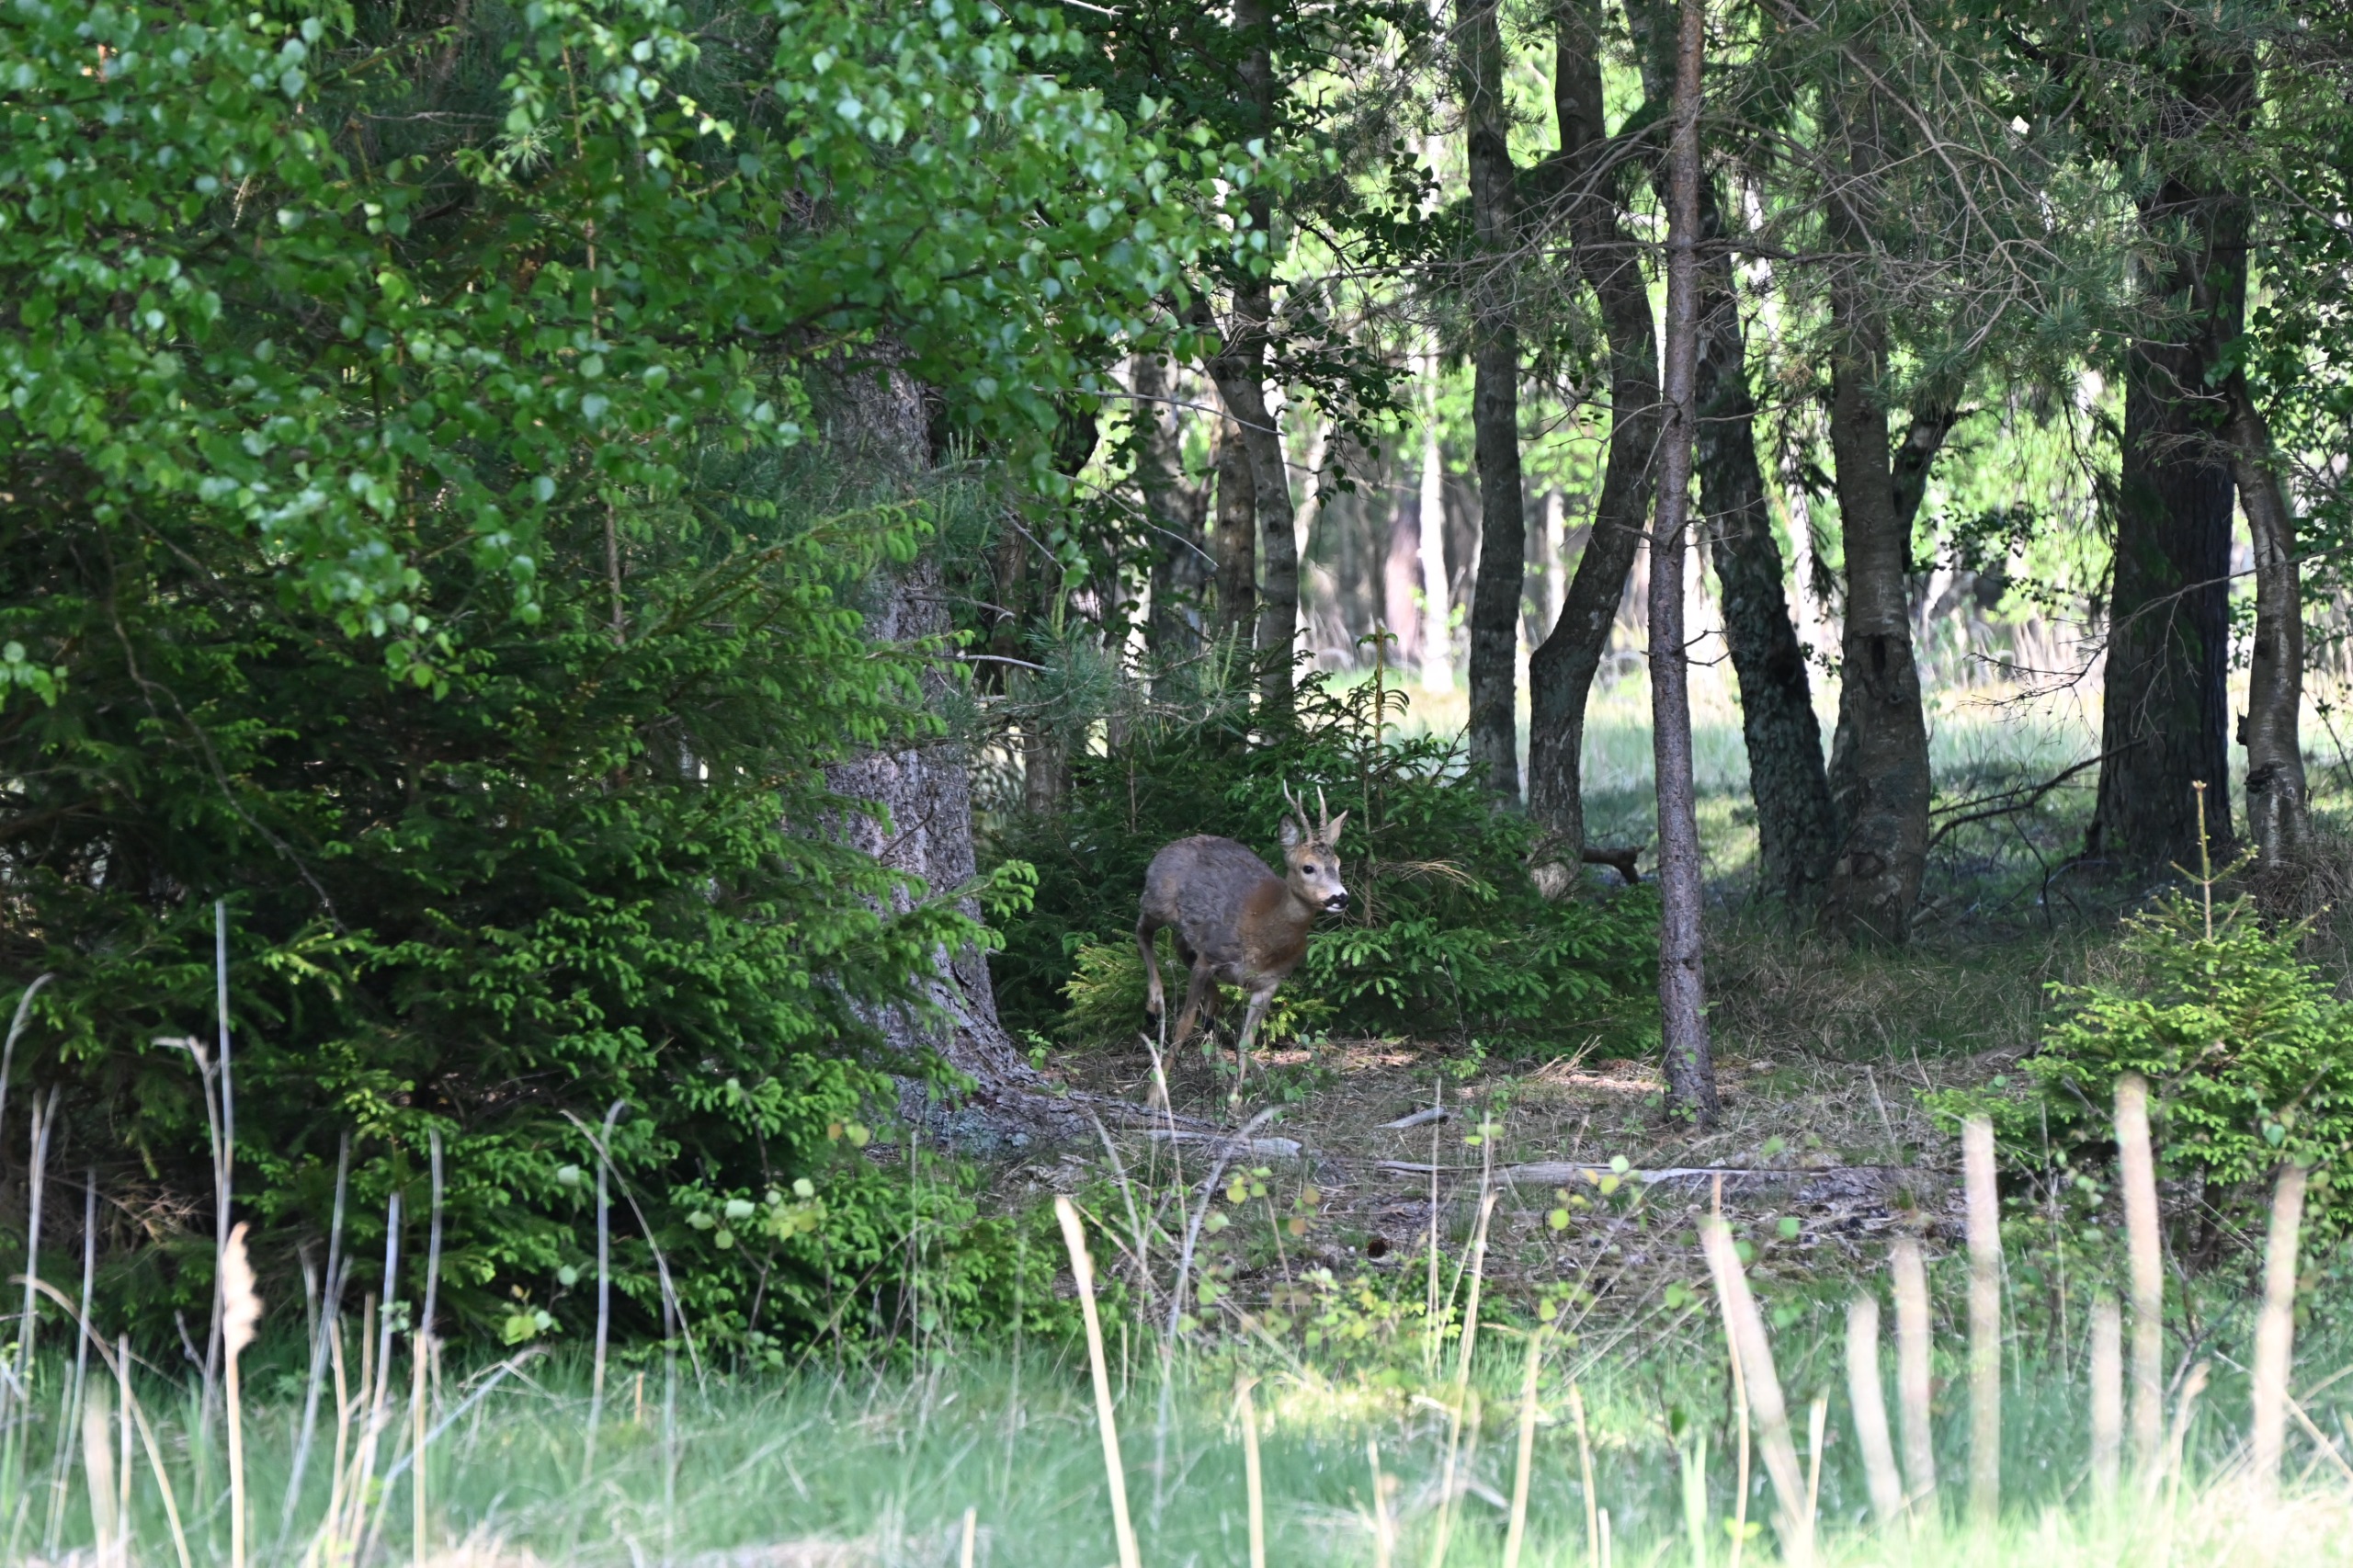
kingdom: Animalia
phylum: Chordata
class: Mammalia
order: Artiodactyla
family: Cervidae
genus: Capreolus
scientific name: Capreolus capreolus
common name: Rådyr
